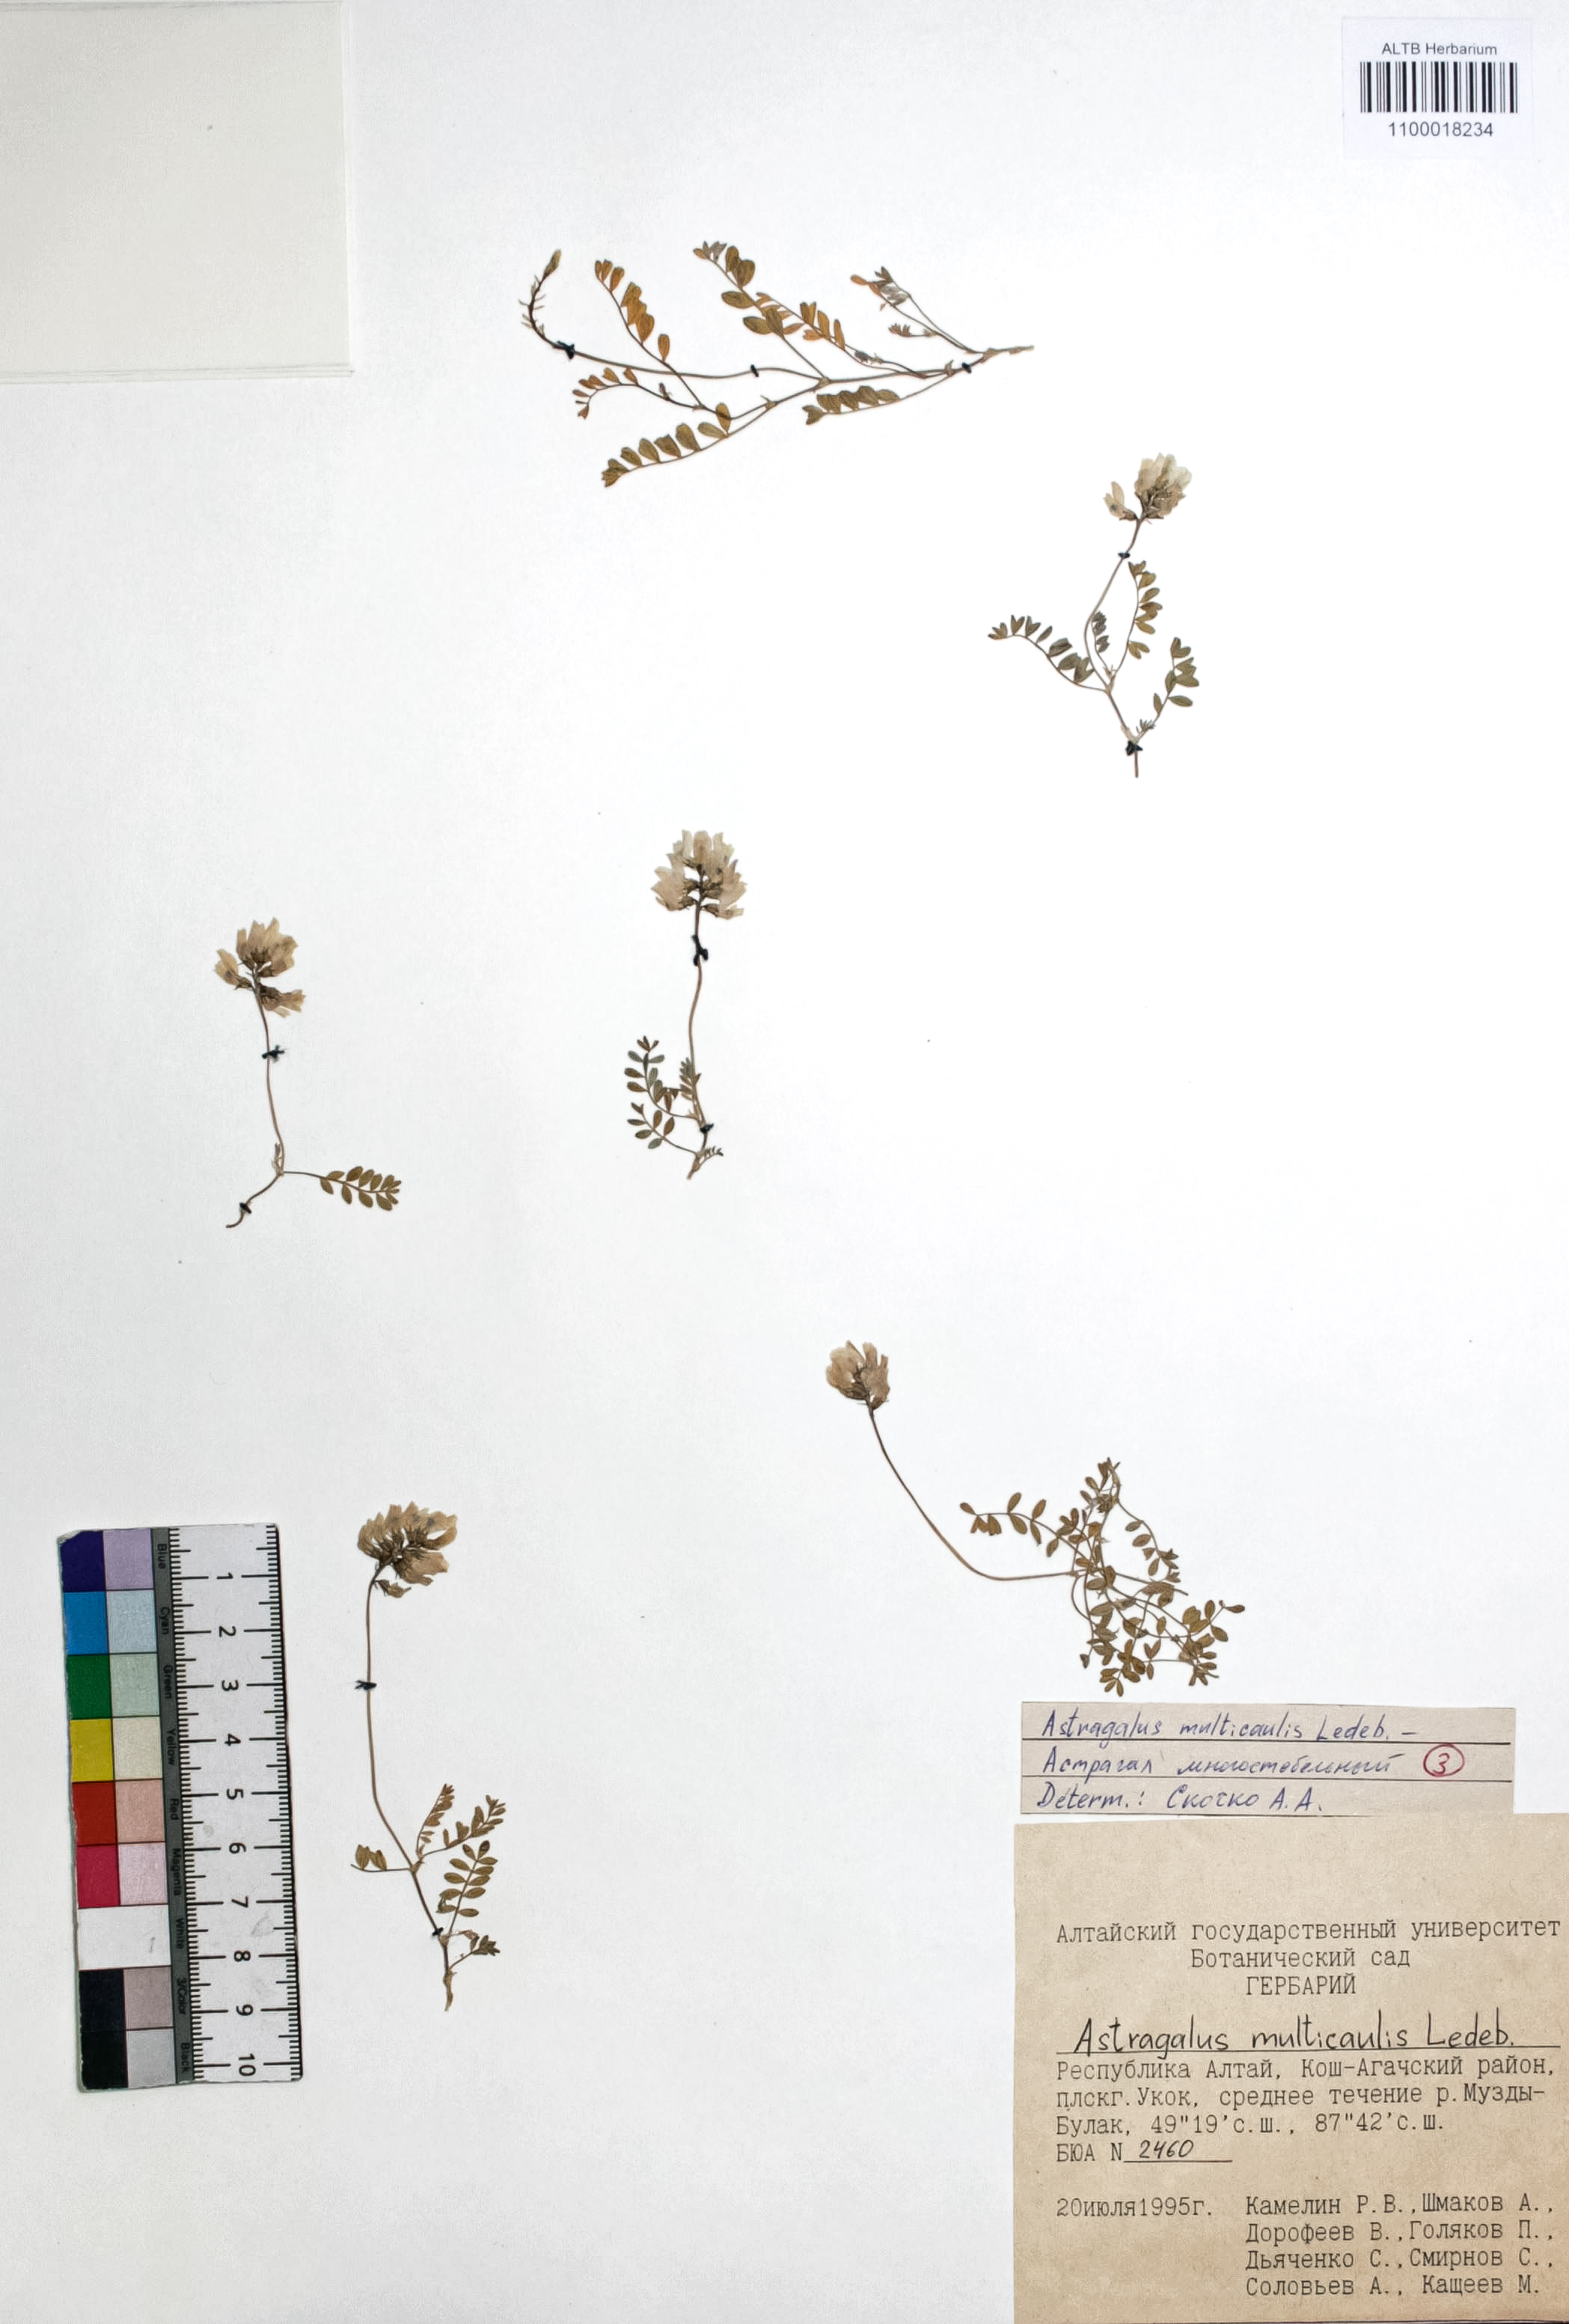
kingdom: Plantae
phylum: Tracheophyta
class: Magnoliopsida
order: Fabales
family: Fabaceae
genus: Astragalus
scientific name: Astragalus leptostachys
